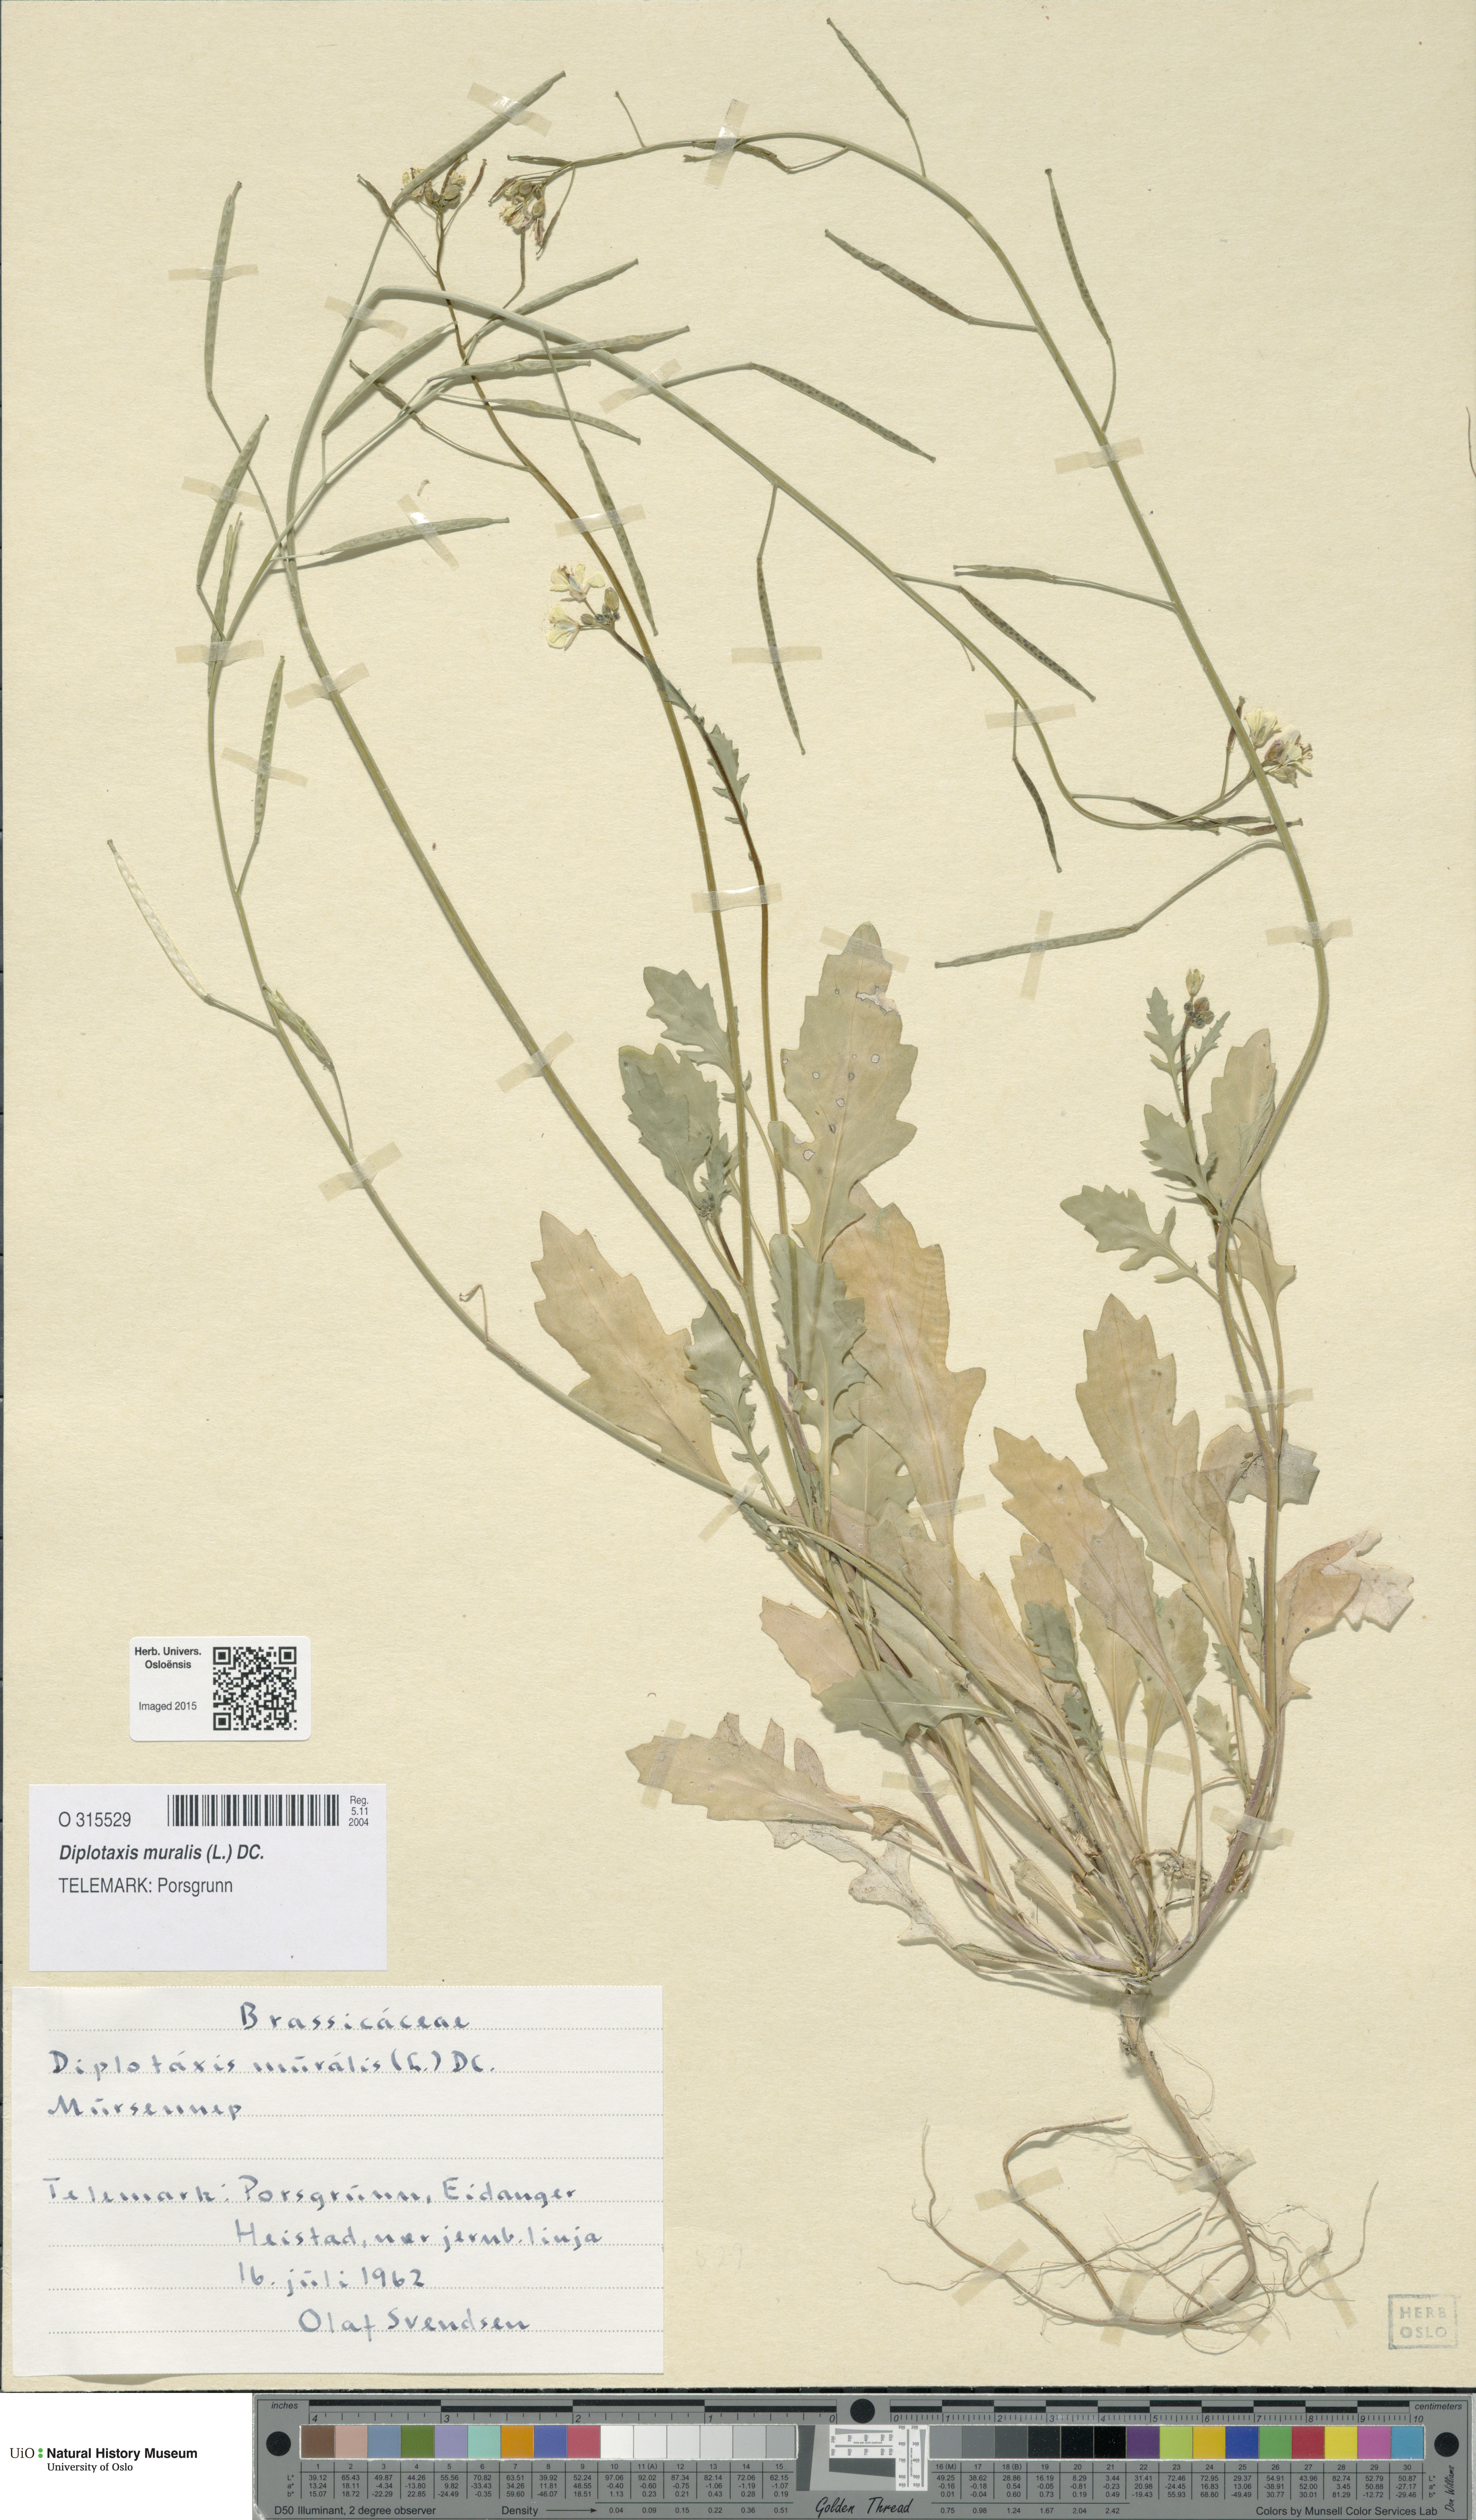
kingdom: Plantae
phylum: Tracheophyta
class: Magnoliopsida
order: Brassicales
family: Brassicaceae
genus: Diplotaxis
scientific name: Diplotaxis muralis
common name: Annual wall-rocket
